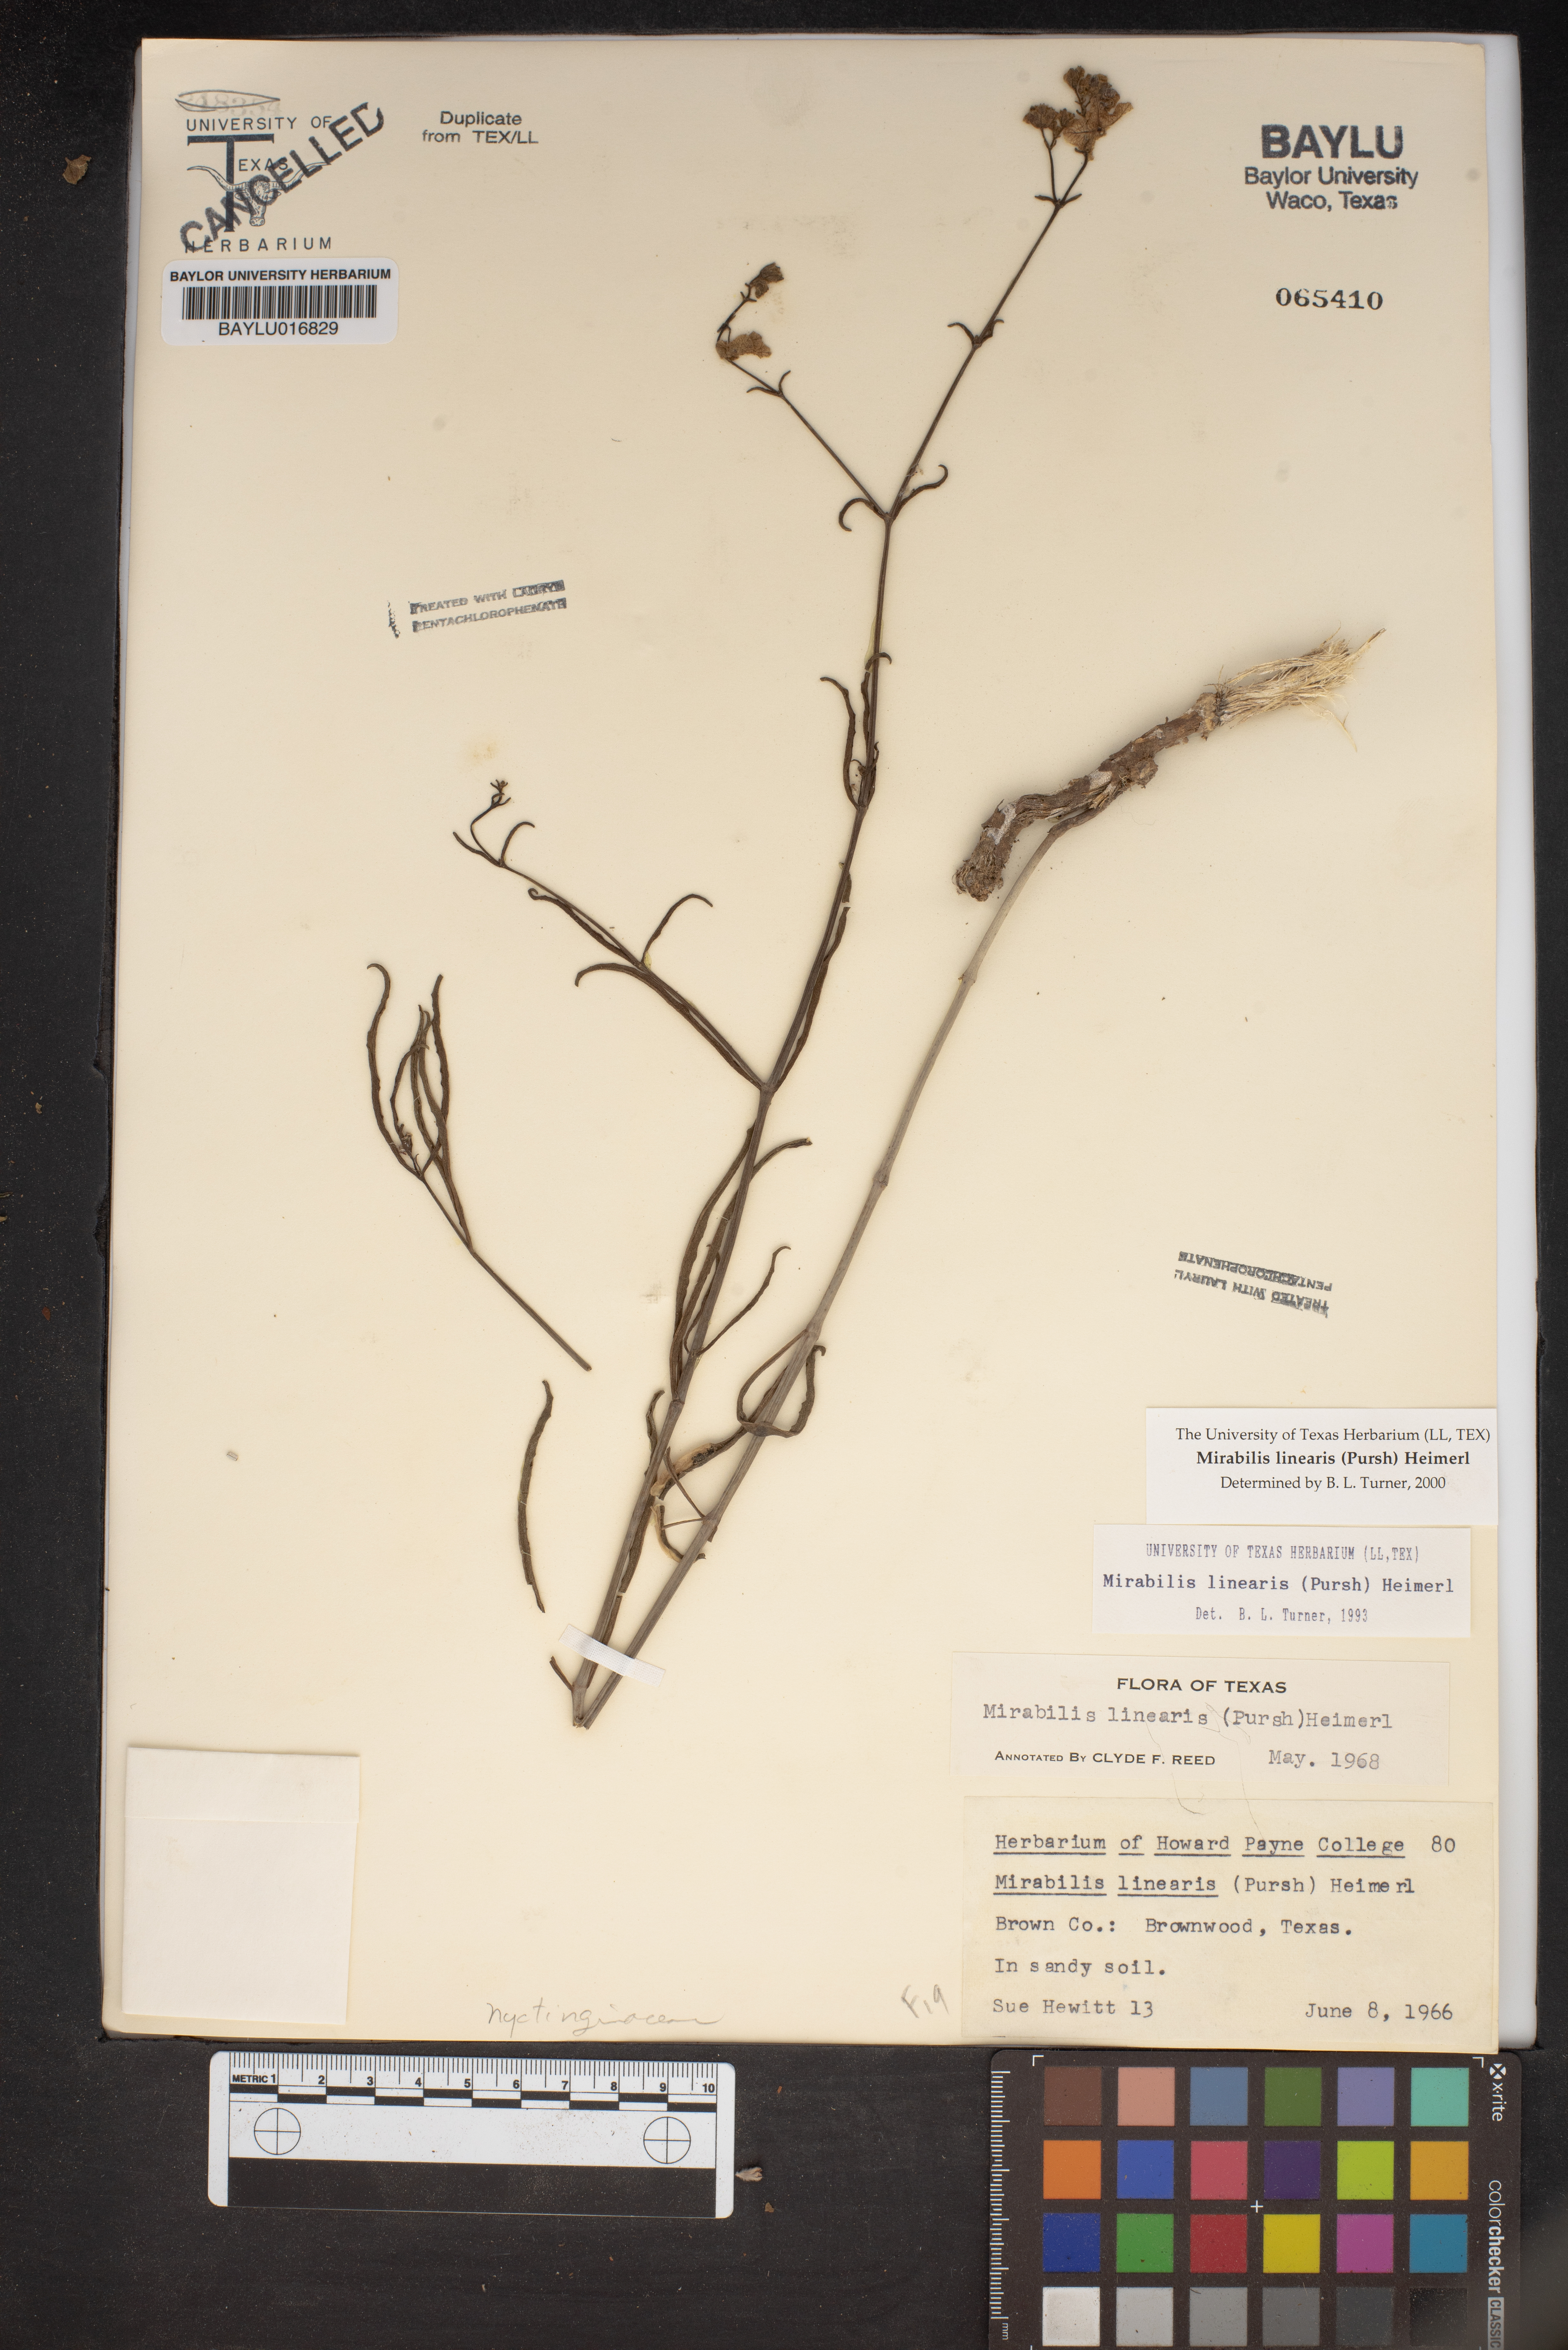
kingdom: Plantae
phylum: Tracheophyta
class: Magnoliopsida
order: Caryophyllales
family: Nyctaginaceae
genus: Mirabilis
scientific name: Mirabilis linearis
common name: Linear-leaved four-o'clock
